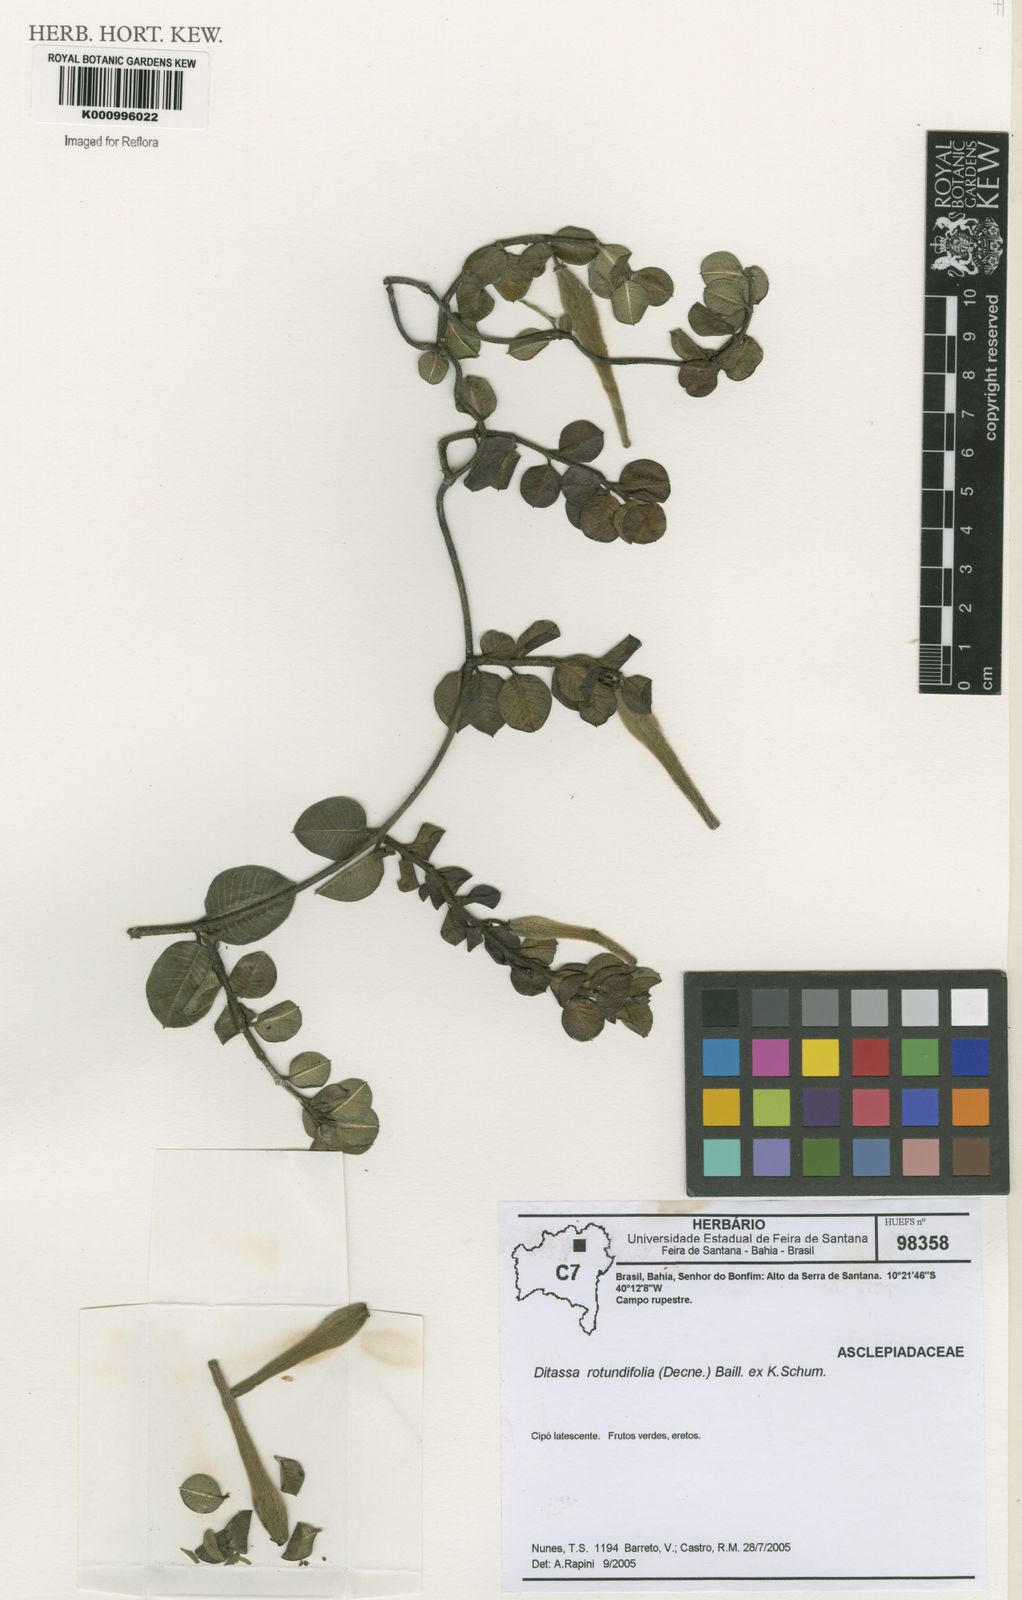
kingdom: Plantae
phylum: Tracheophyta
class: Magnoliopsida
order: Gentianales
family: Apocynaceae
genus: Ditassa
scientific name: Ditassa
